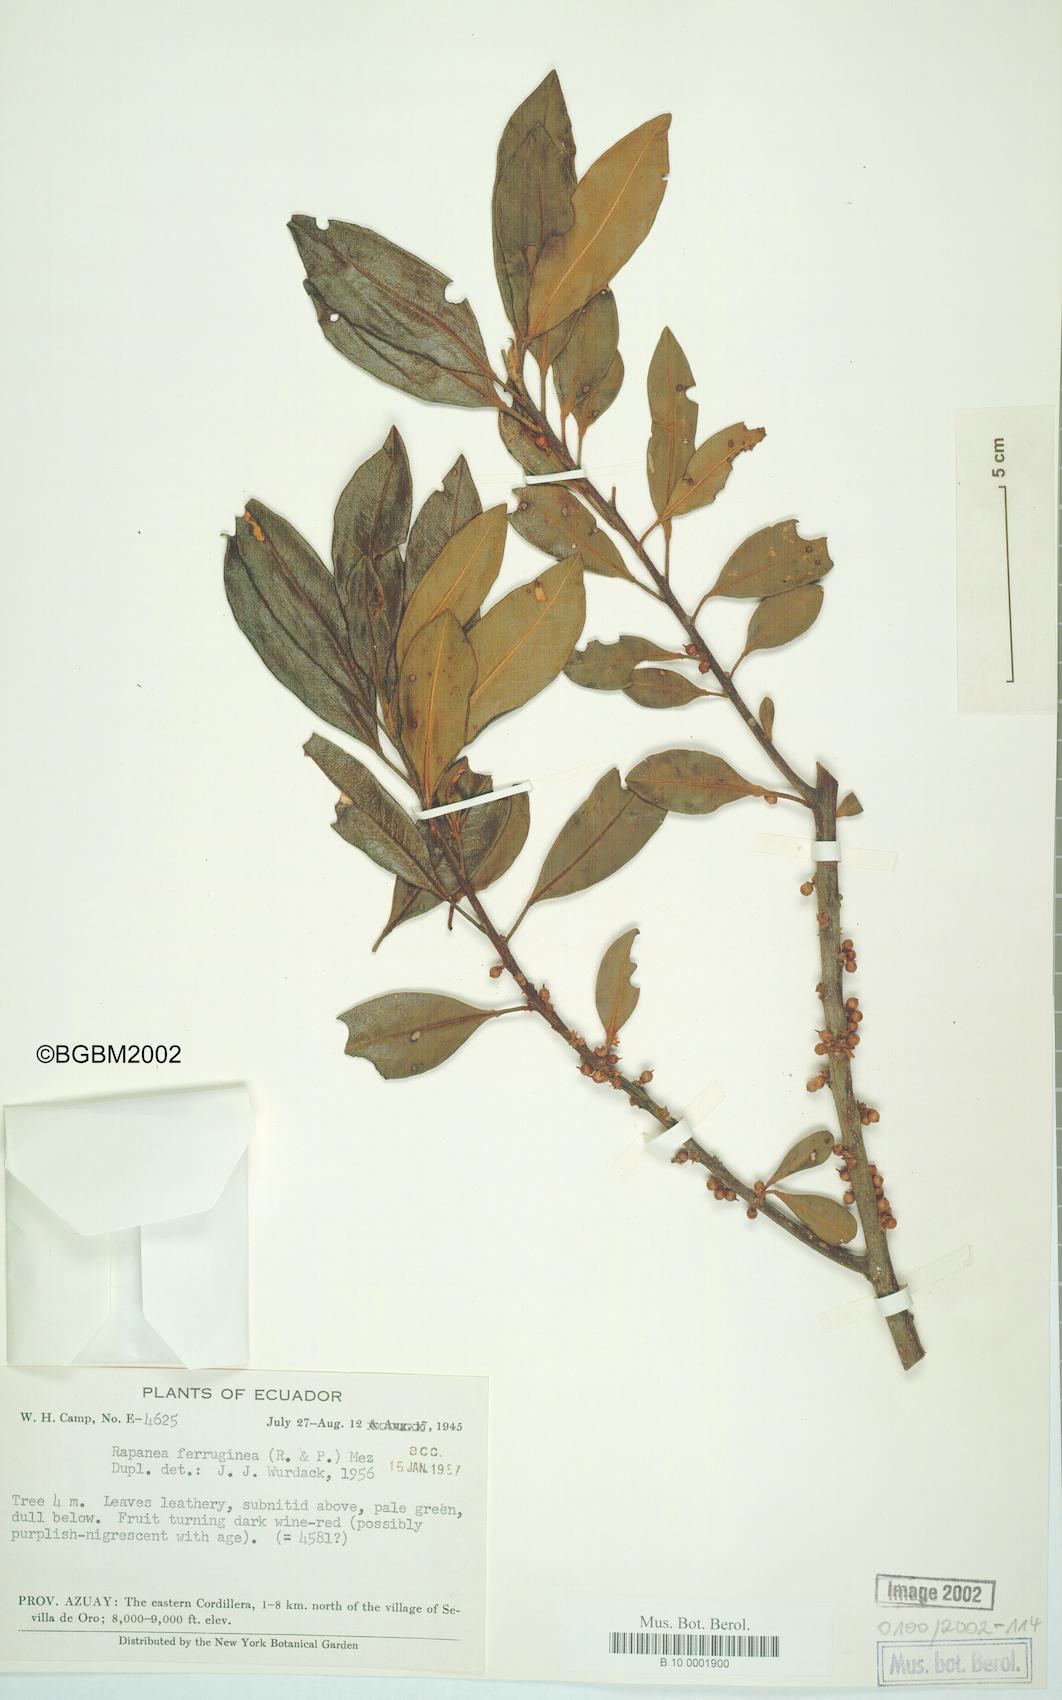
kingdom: Plantae
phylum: Tracheophyta
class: Magnoliopsida
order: Ericales
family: Primulaceae
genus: Myrsine
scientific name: Myrsine coriacea
